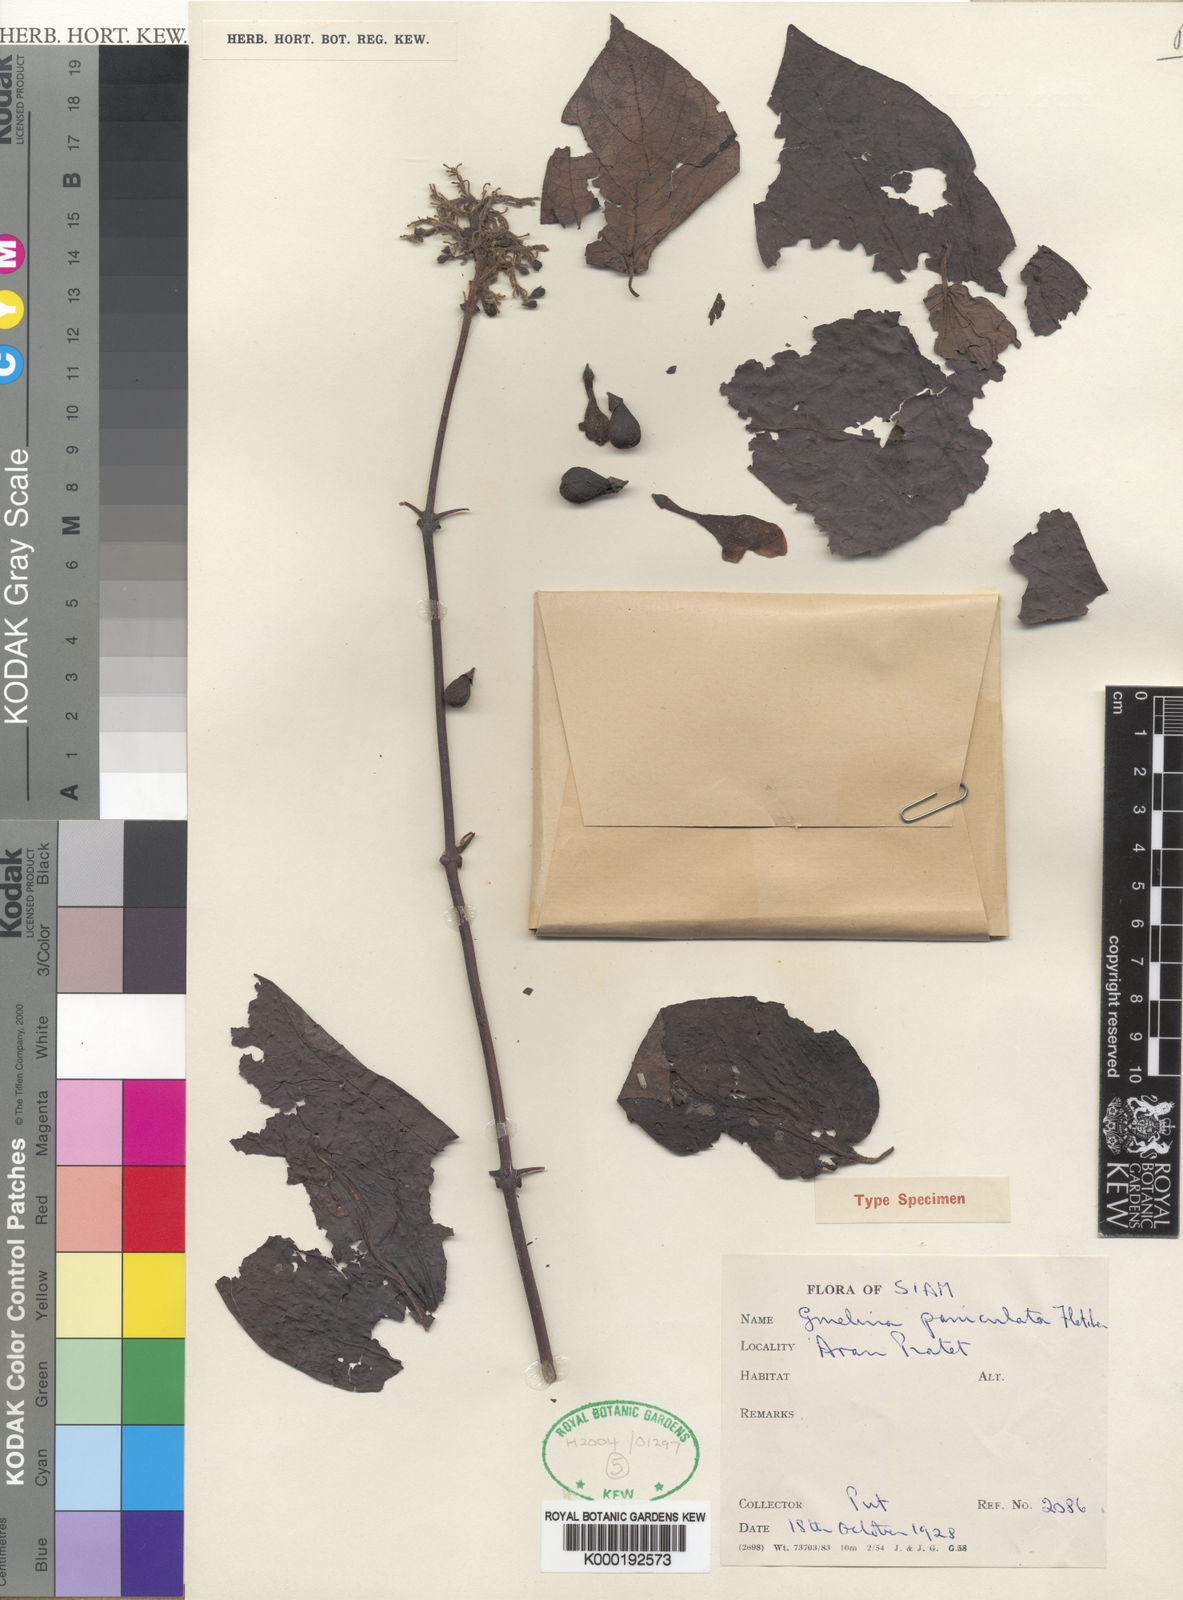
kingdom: Plantae
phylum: Tracheophyta
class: Magnoliopsida
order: Lamiales
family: Lamiaceae
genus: Gmelina
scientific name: Gmelina asiatica
